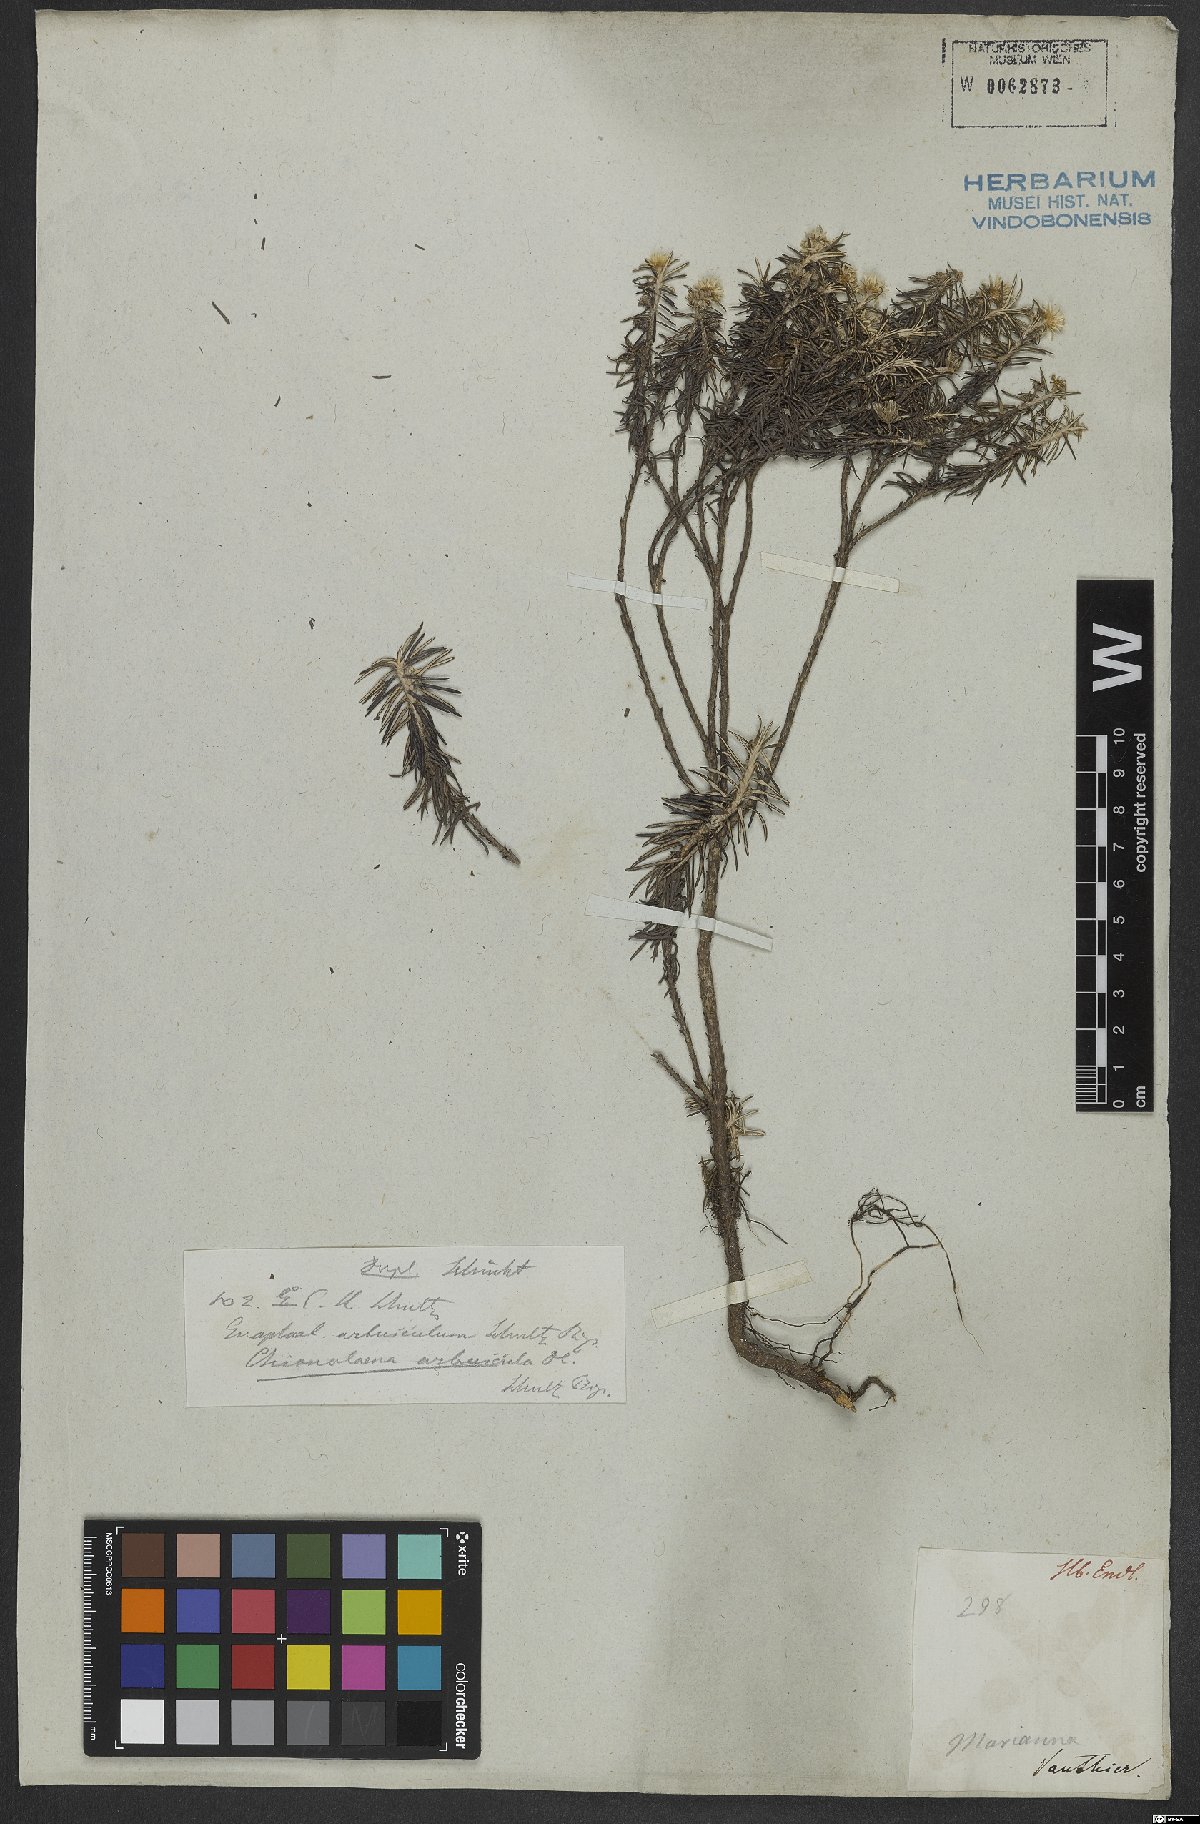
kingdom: Plantae
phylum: Tracheophyta
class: Magnoliopsida
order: Asterales
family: Asteraceae
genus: Chionolaena
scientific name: Chionolaena arbuscula
